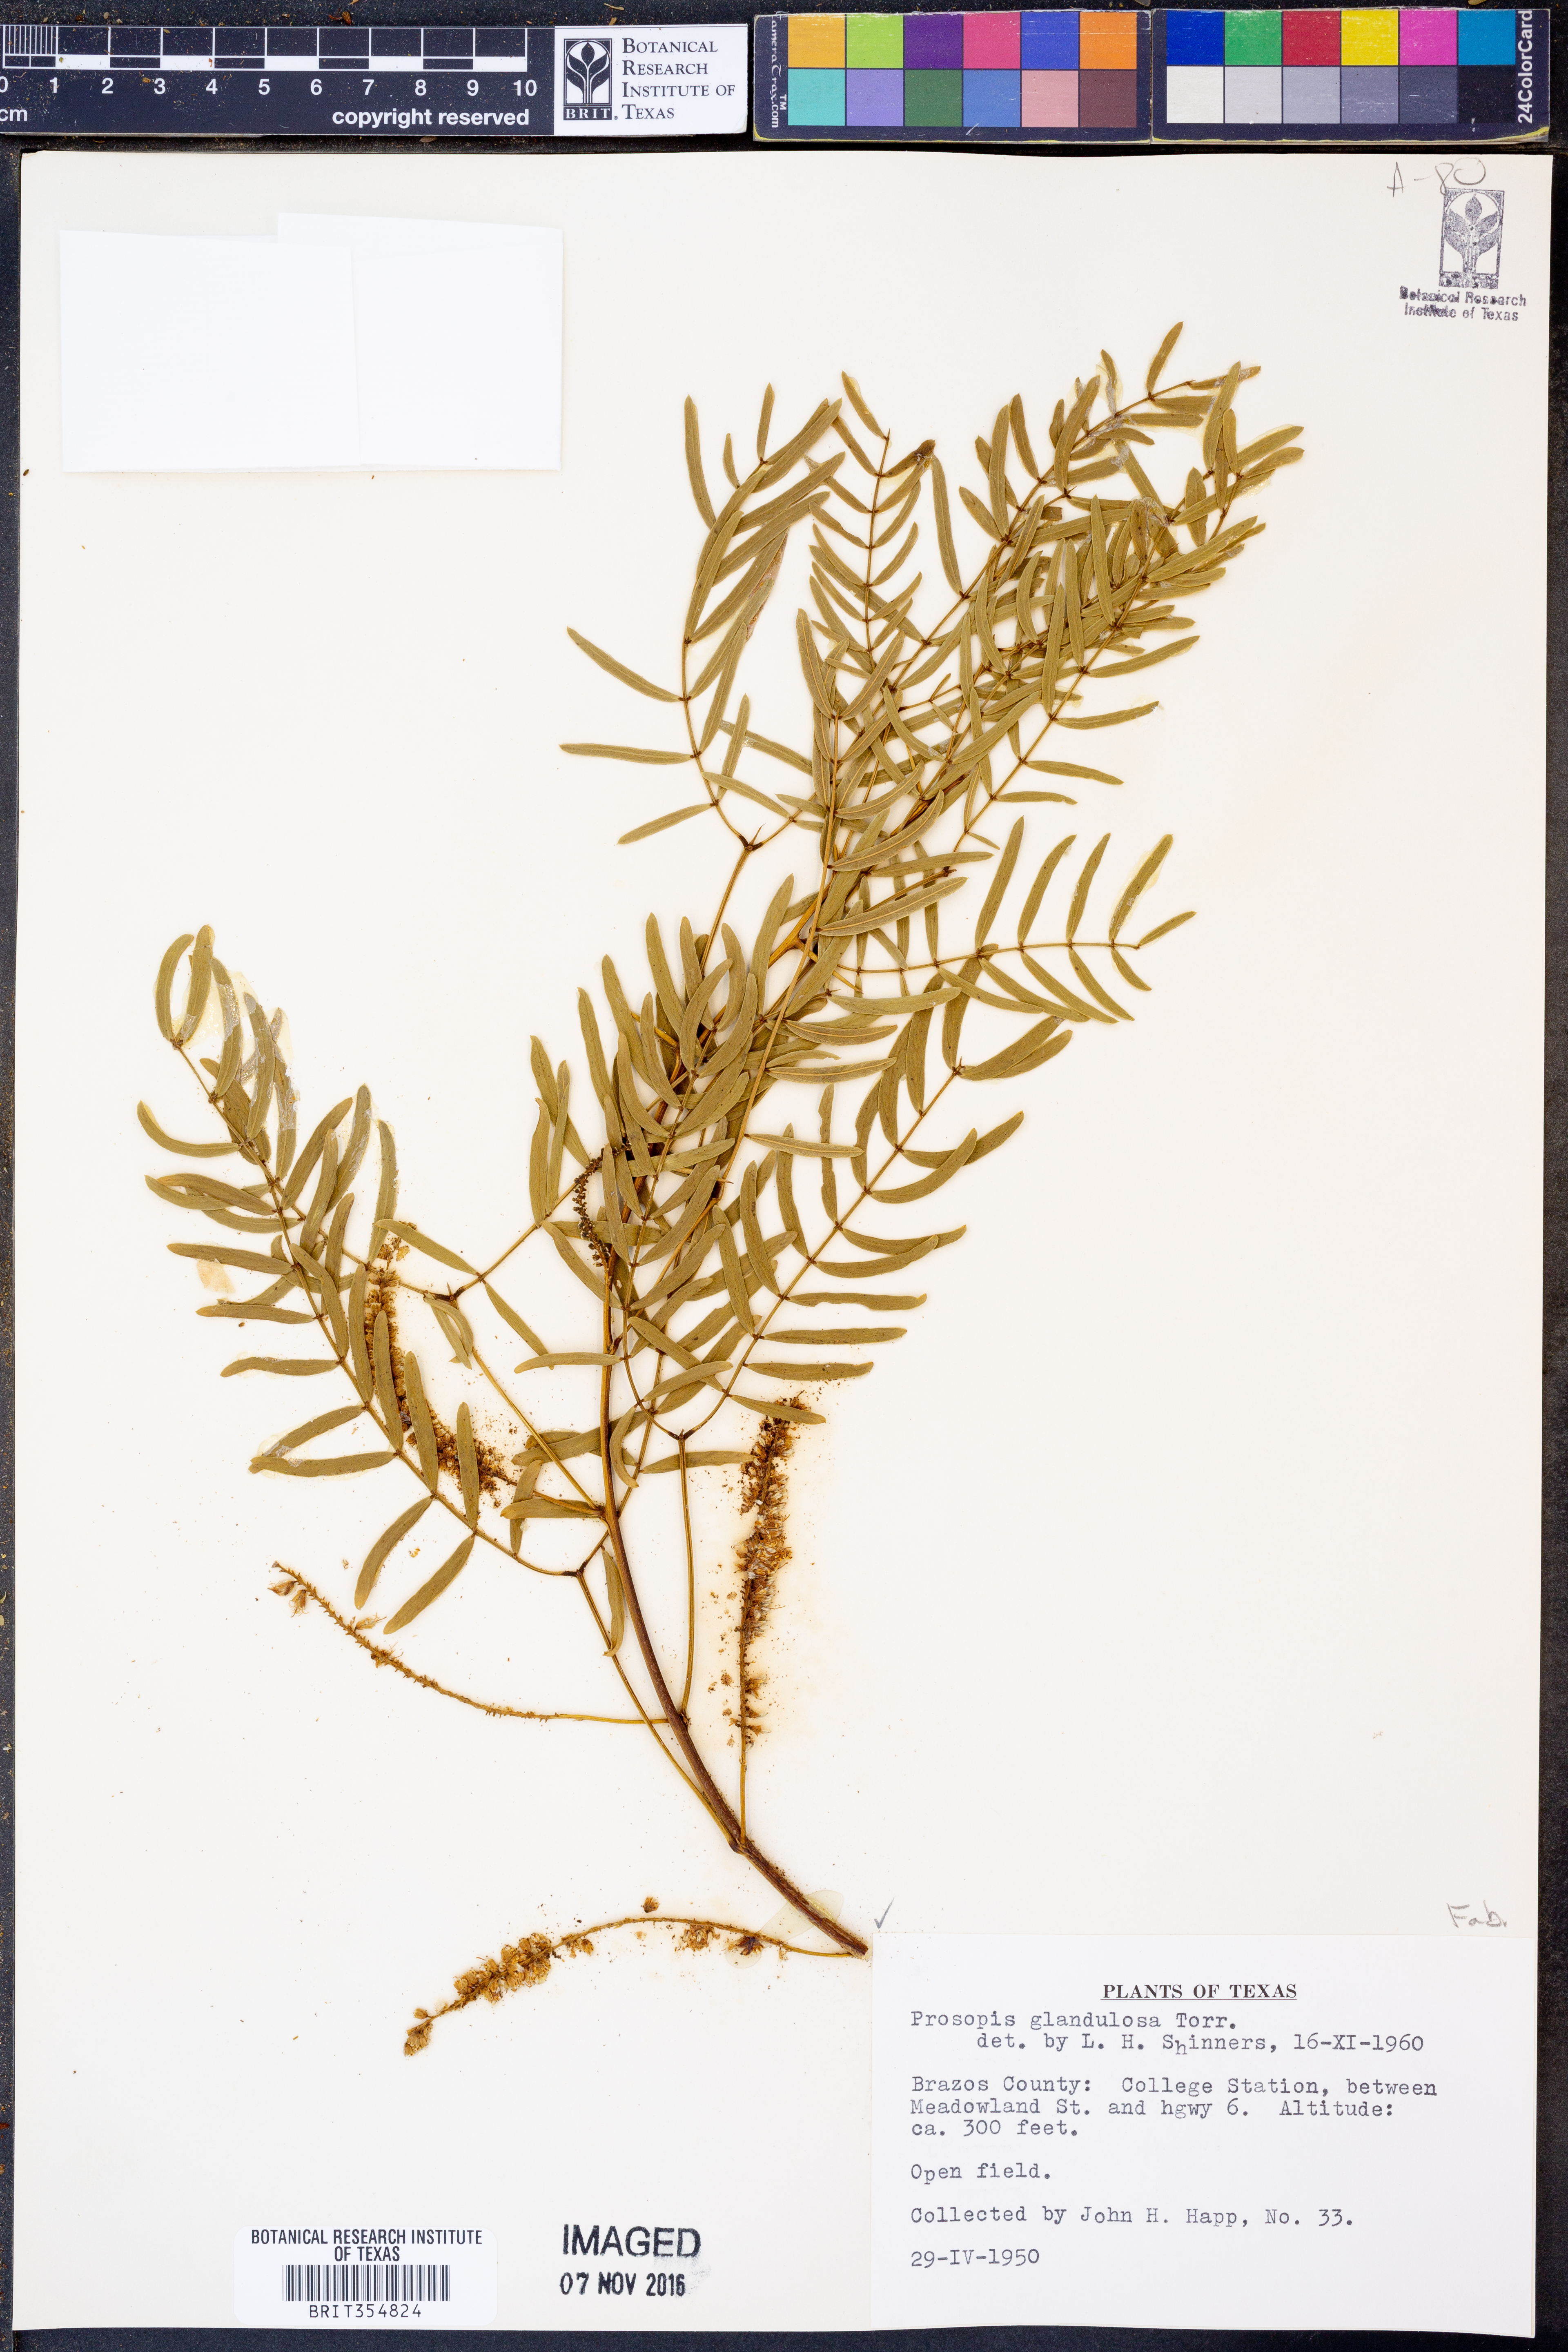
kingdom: Plantae
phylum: Tracheophyta
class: Magnoliopsida
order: Fabales
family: Fabaceae
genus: Prosopis
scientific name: Prosopis glandulosa
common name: Honey mesquite
